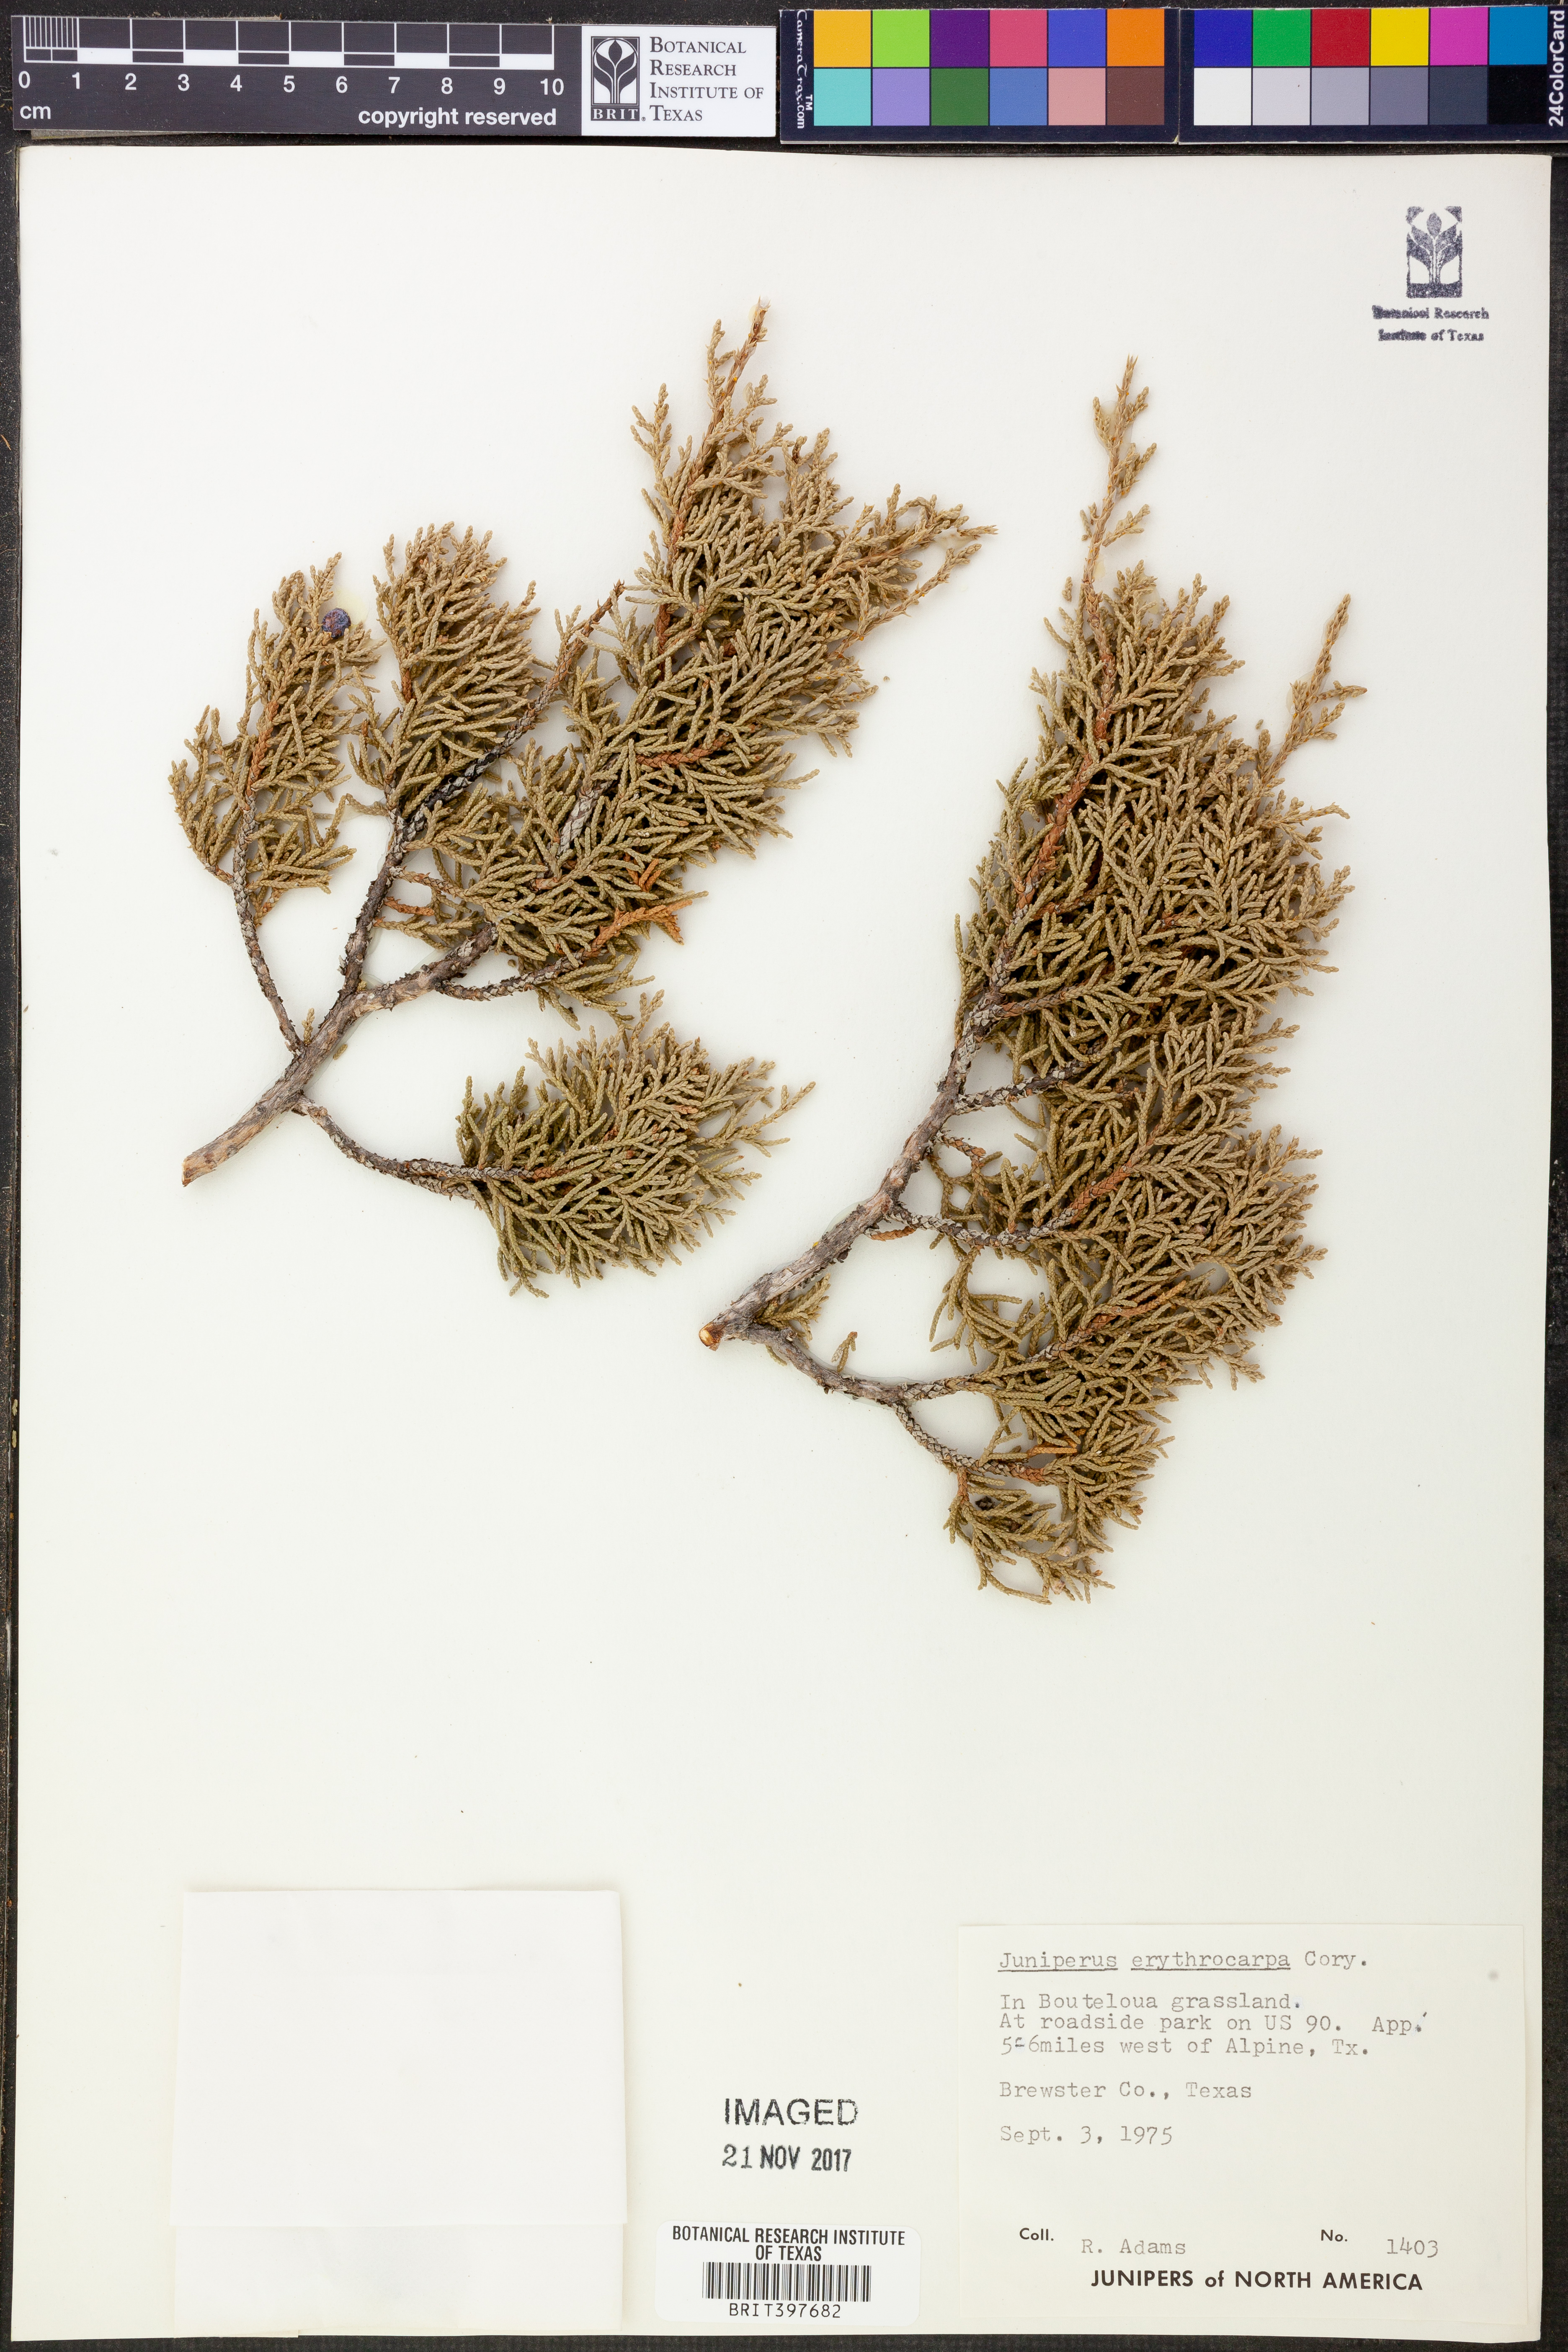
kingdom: Plantae
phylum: Tracheophyta
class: Pinopsida
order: Pinales
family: Cupressaceae
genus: Juniperus
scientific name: Juniperus pinchotii
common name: Pinchot juniper
